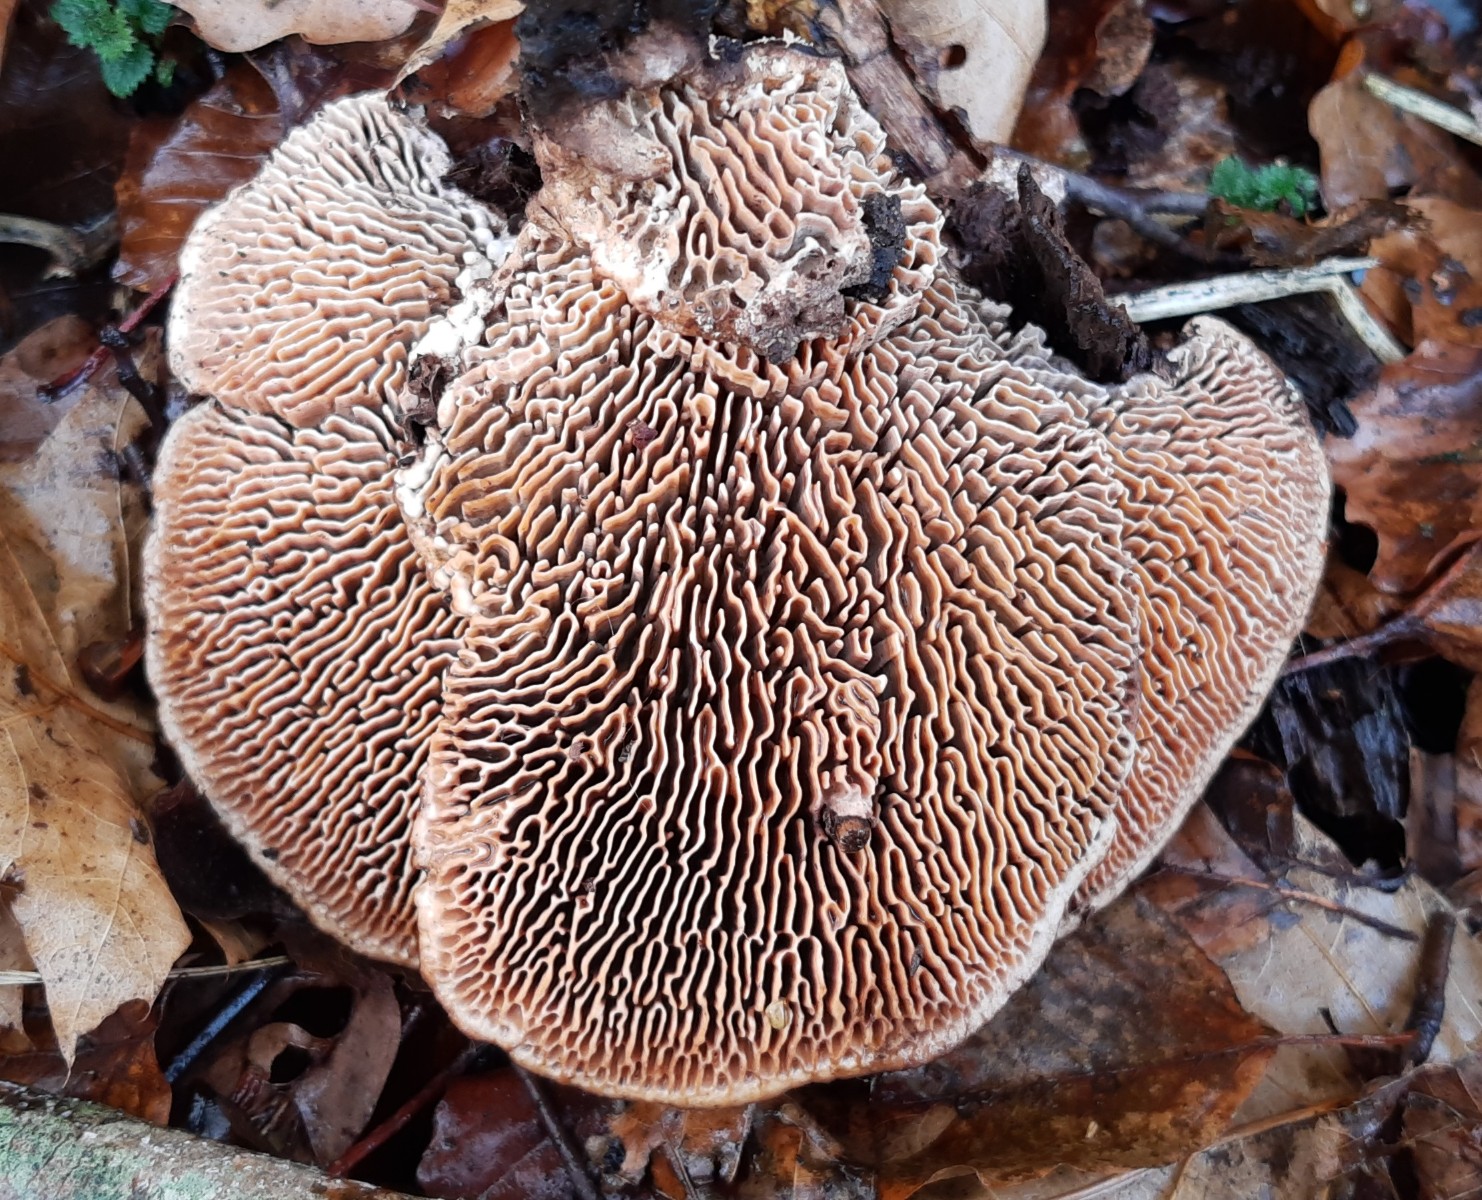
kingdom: Fungi
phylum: Basidiomycota
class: Agaricomycetes
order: Polyporales
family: Fomitopsidaceae
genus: Daedalea
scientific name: Daedalea quercina
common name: ege-labyrintsvamp
